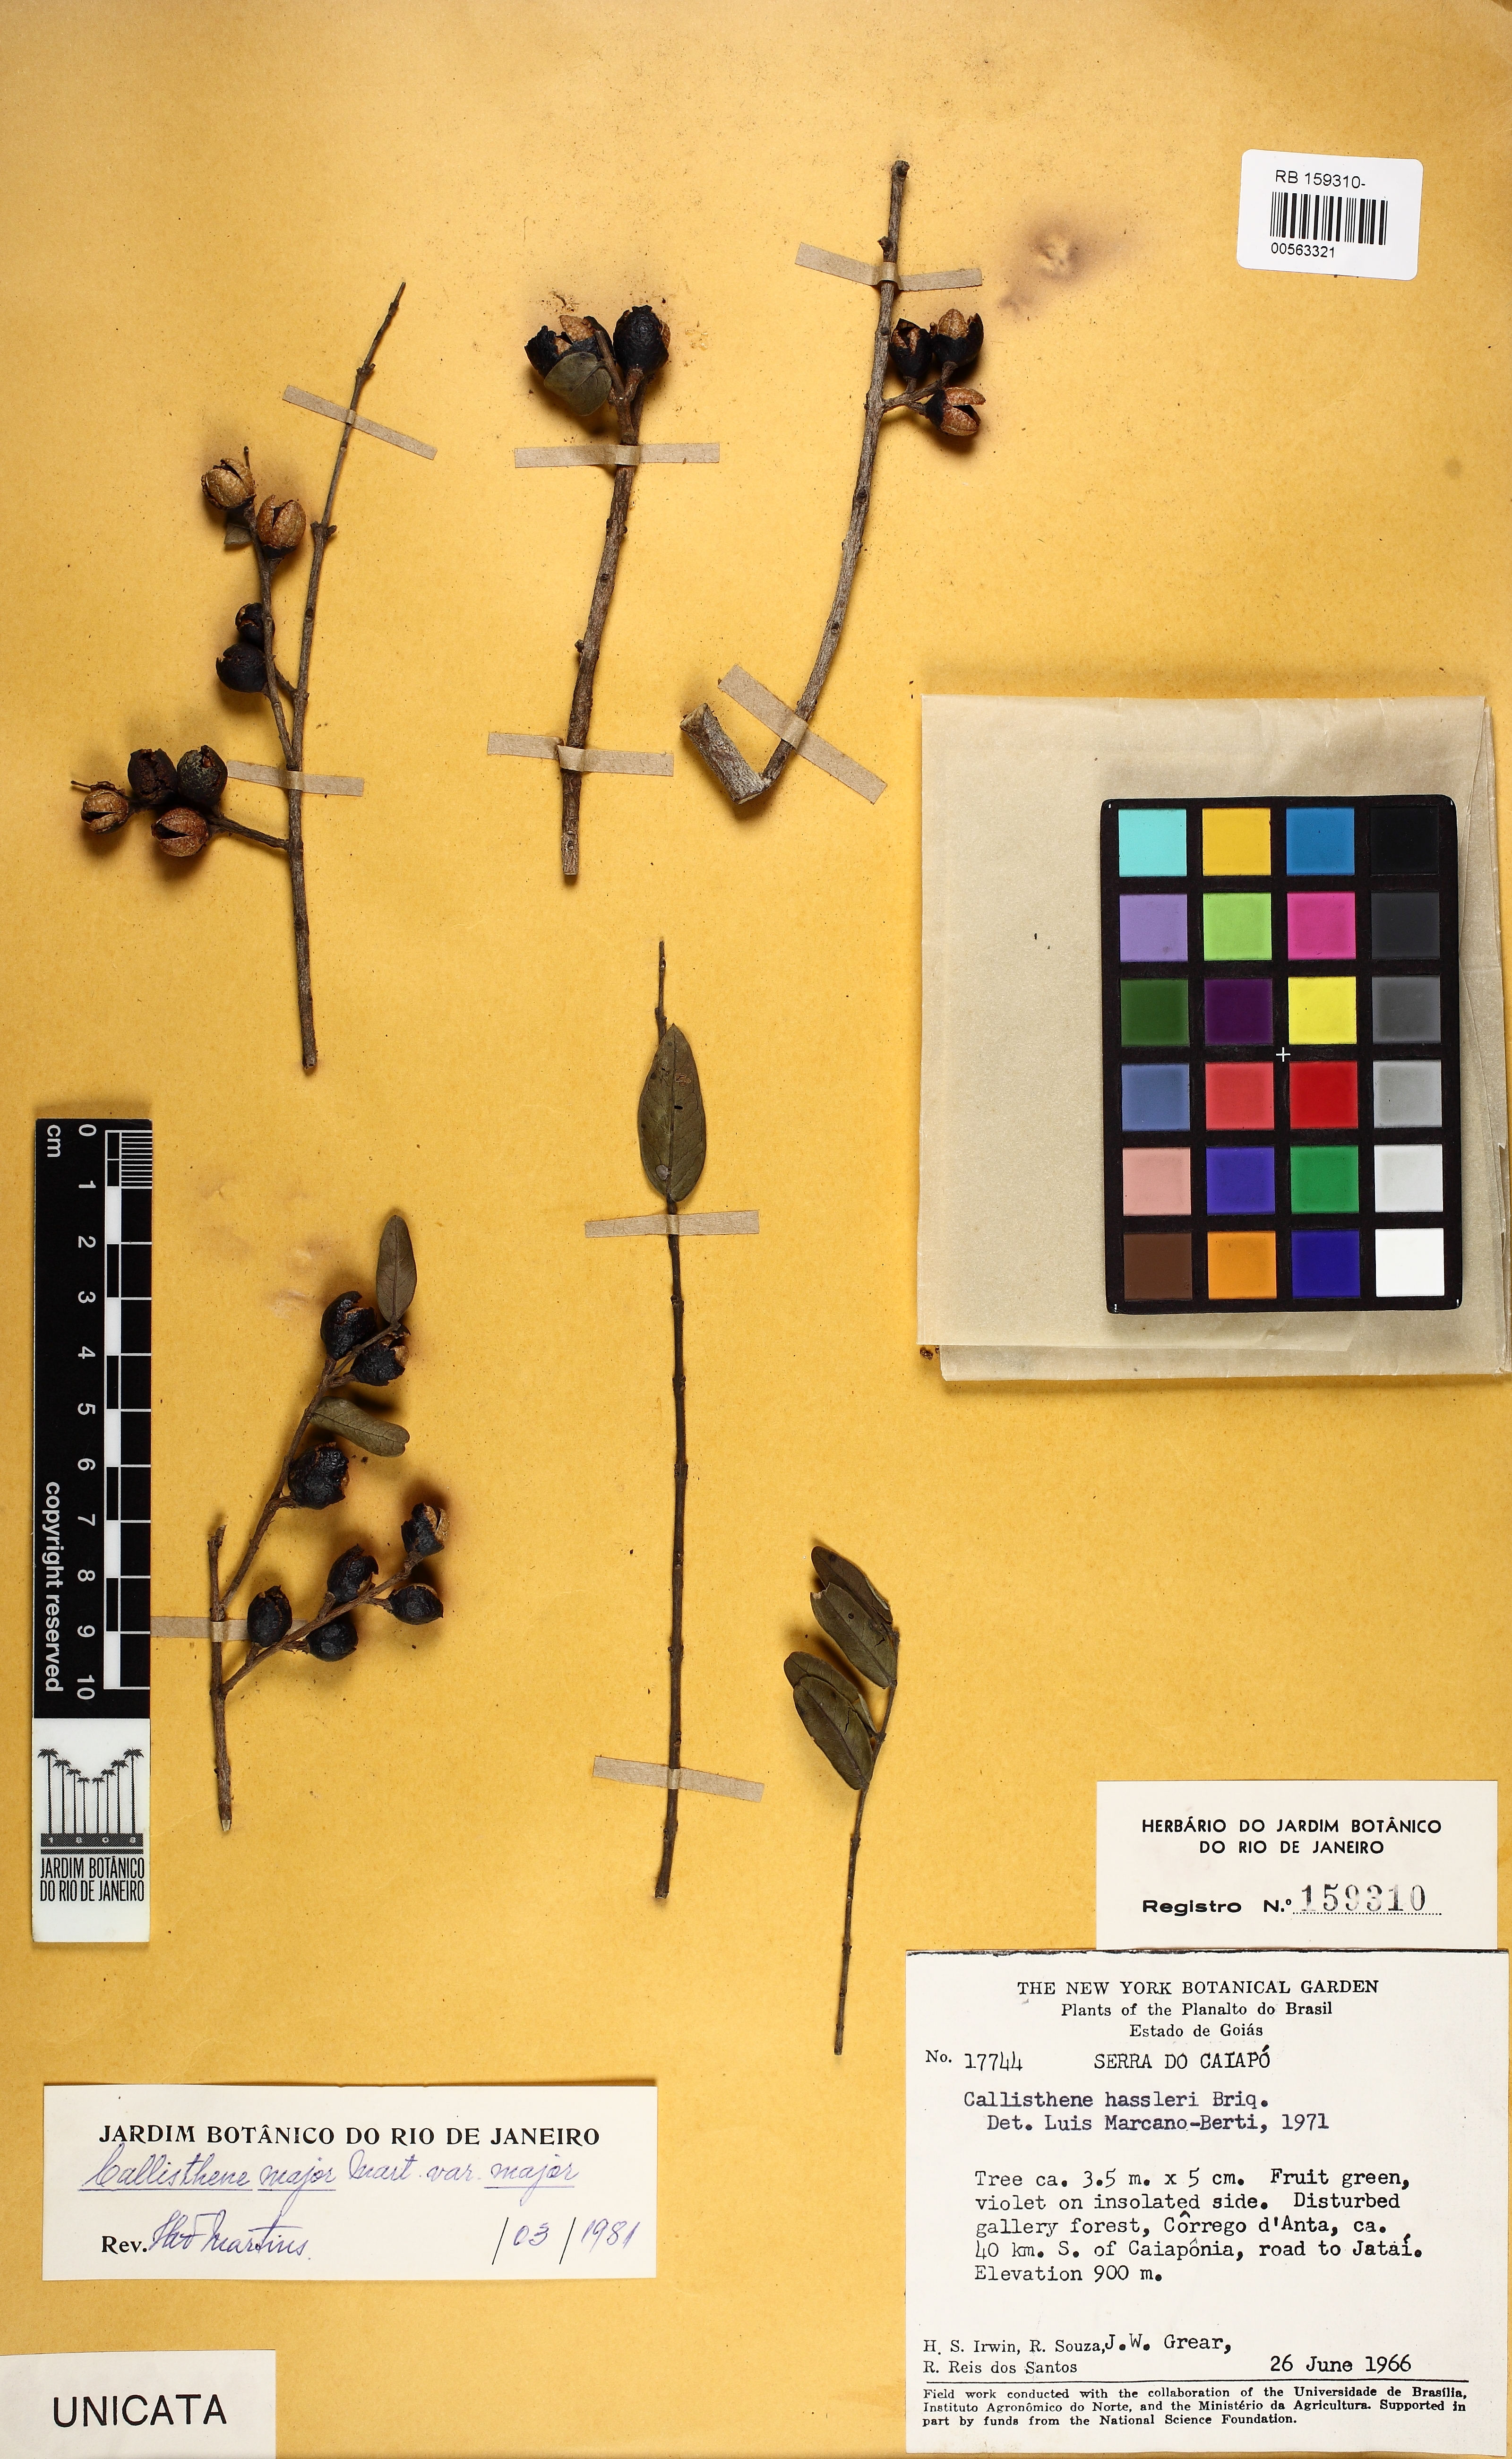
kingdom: Plantae
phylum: Tracheophyta
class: Magnoliopsida
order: Myrtales
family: Vochysiaceae
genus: Callisthene
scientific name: Callisthene major
